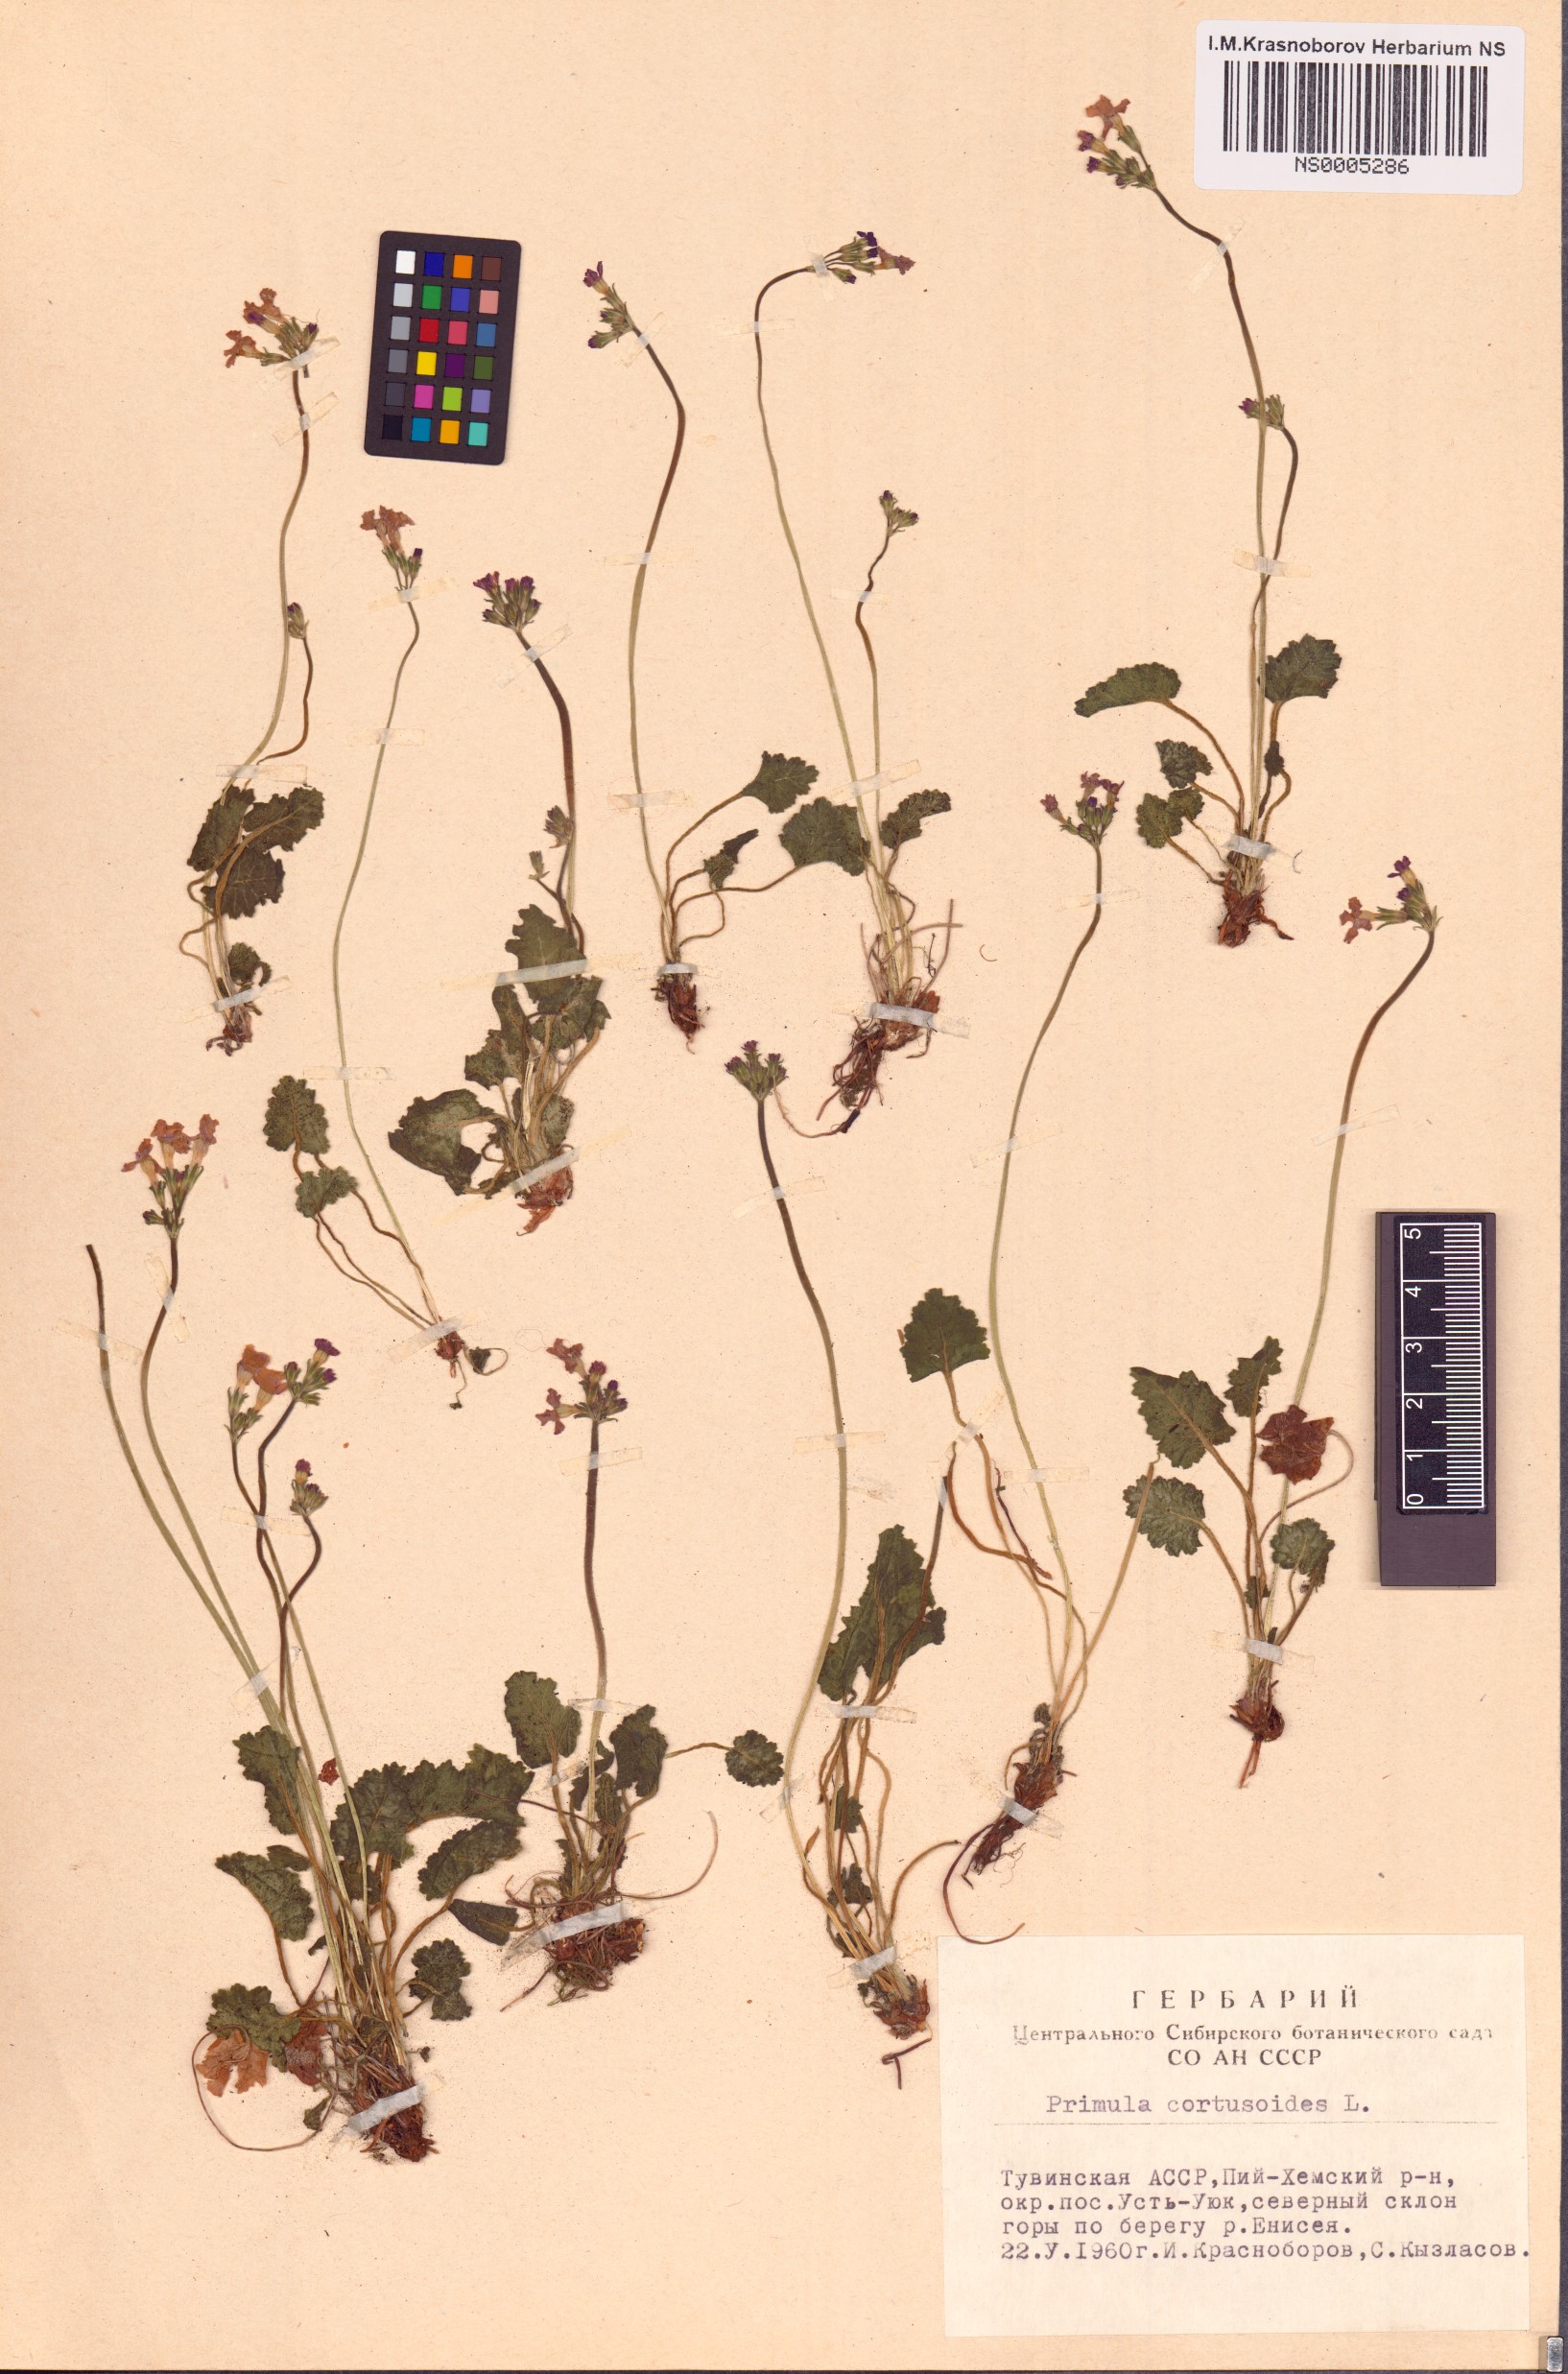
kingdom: Plantae
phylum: Tracheophyta
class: Magnoliopsida
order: Ericales
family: Primulaceae
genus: Primula
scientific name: Primula cortusoides
